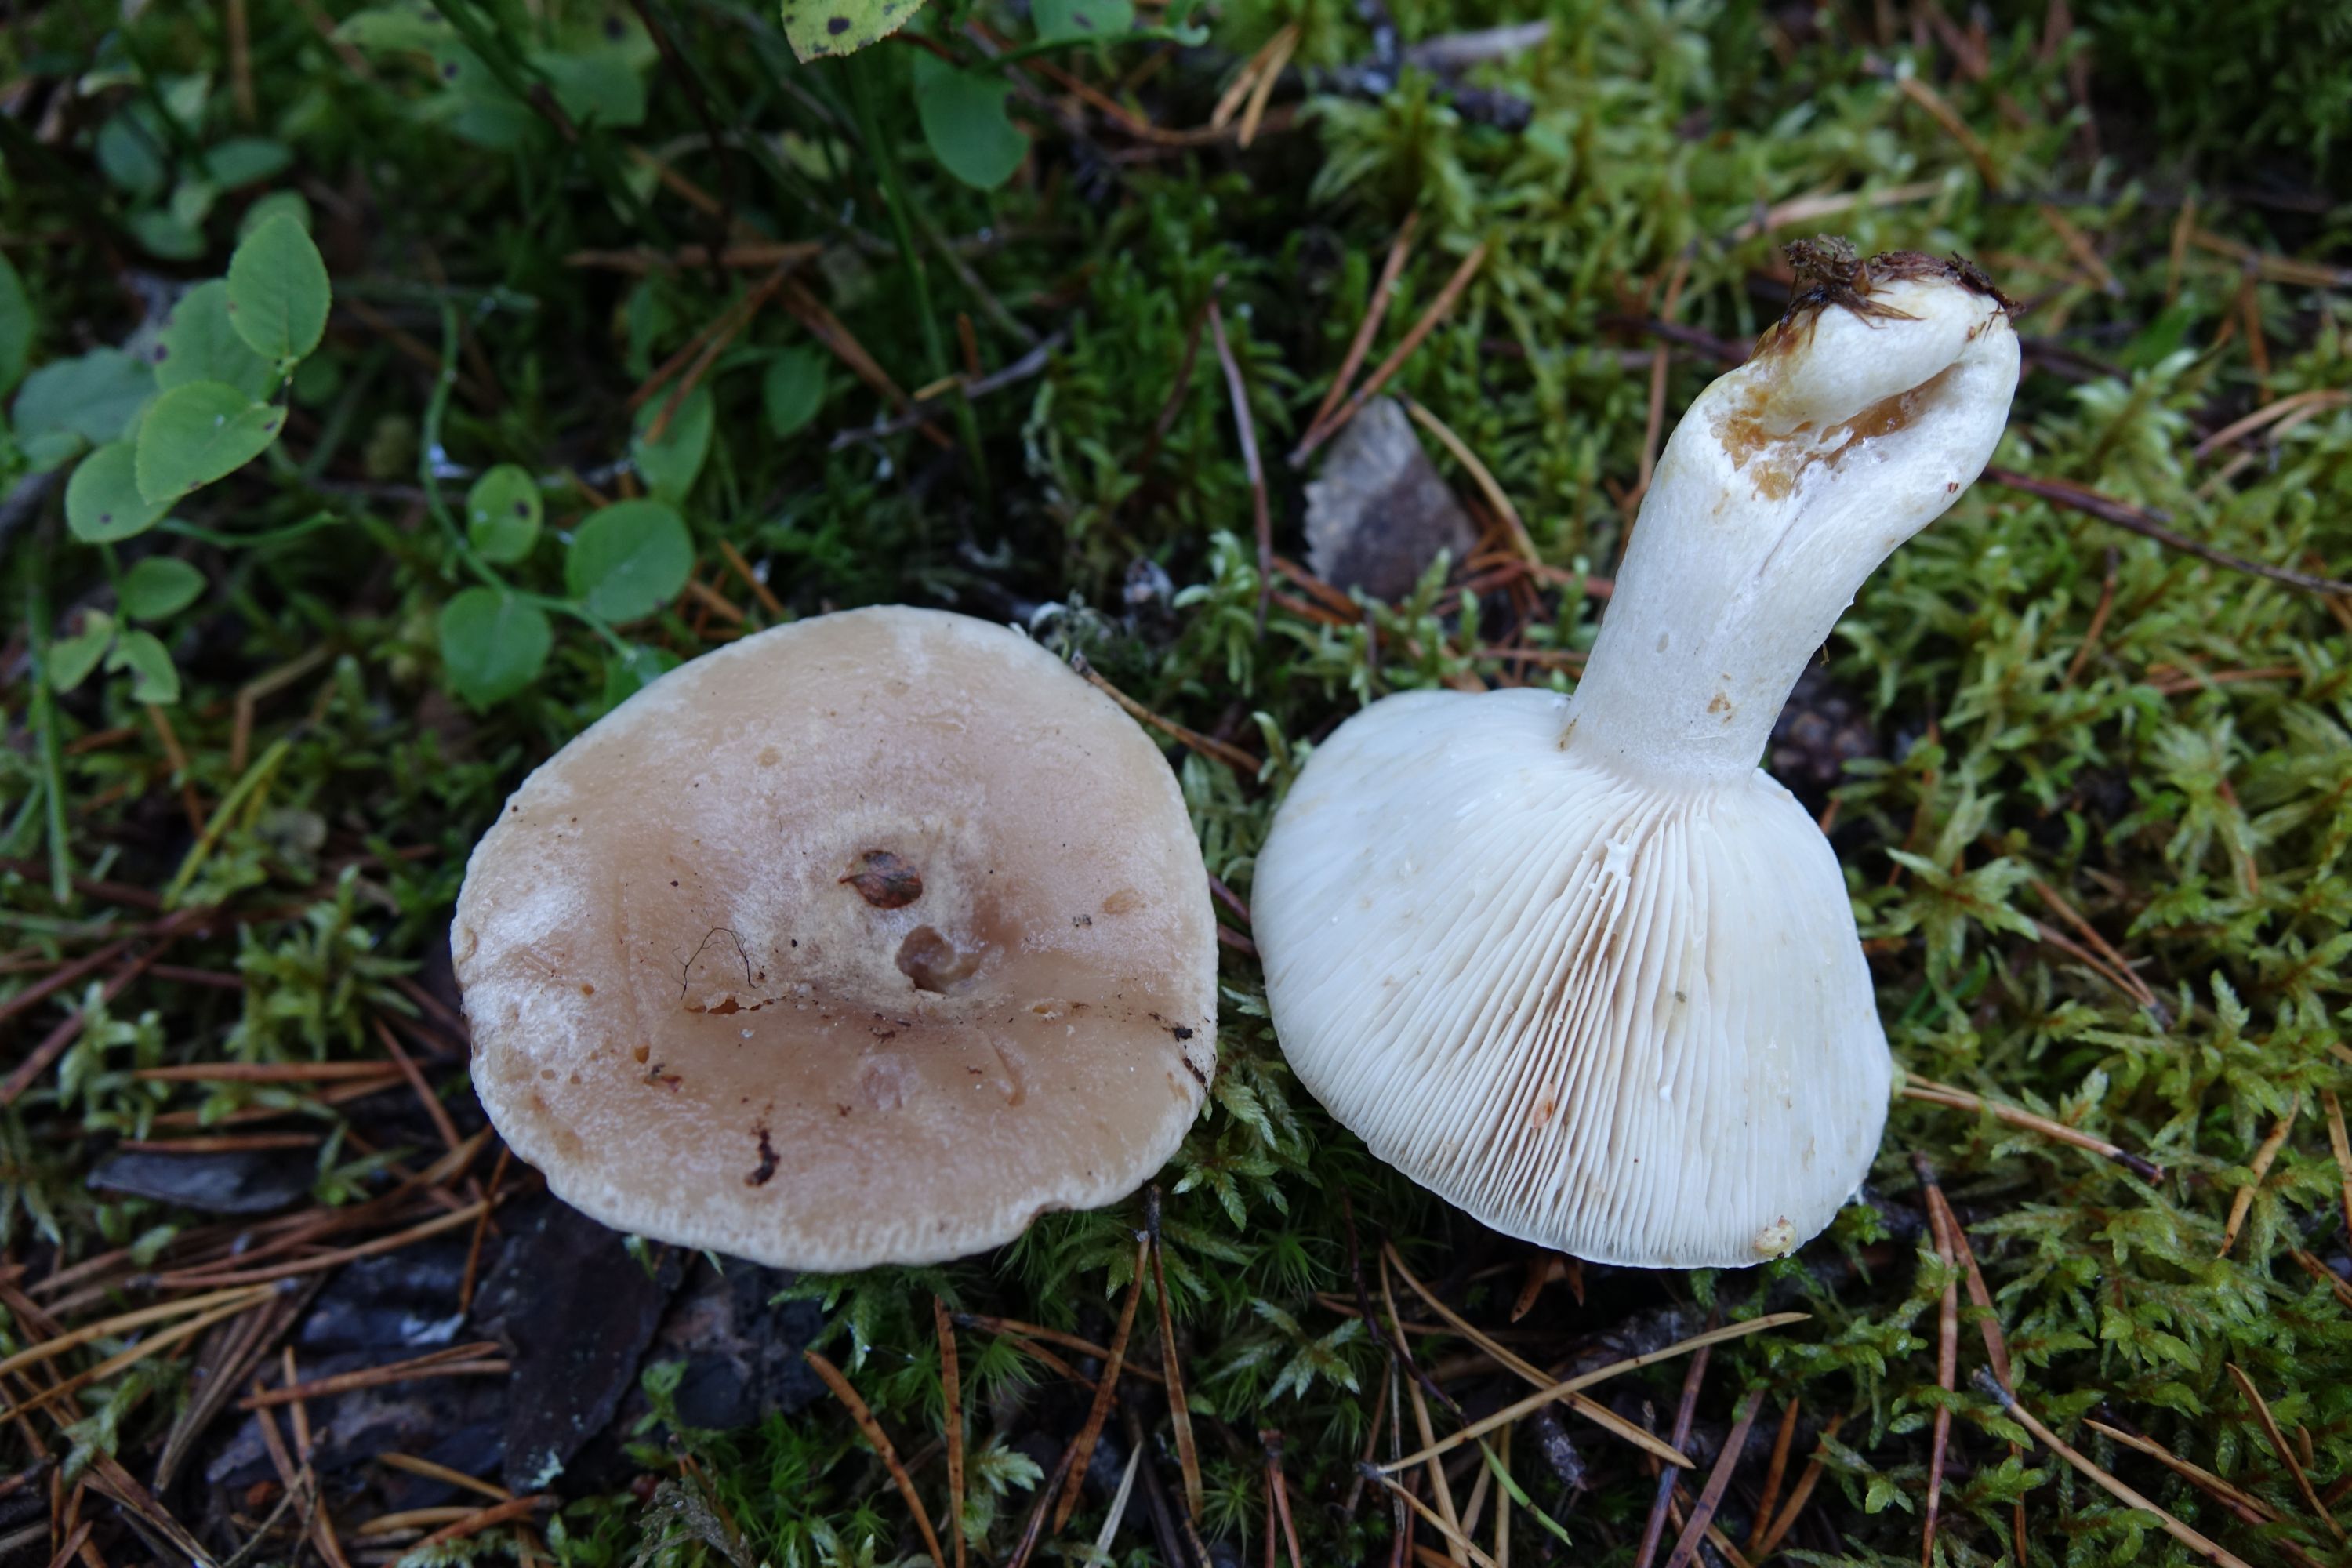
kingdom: Fungi
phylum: Basidiomycota
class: Agaricomycetes
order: Russulales
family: Russulaceae
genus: Lactarius
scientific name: Lactarius musteus
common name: Pine milkcap
